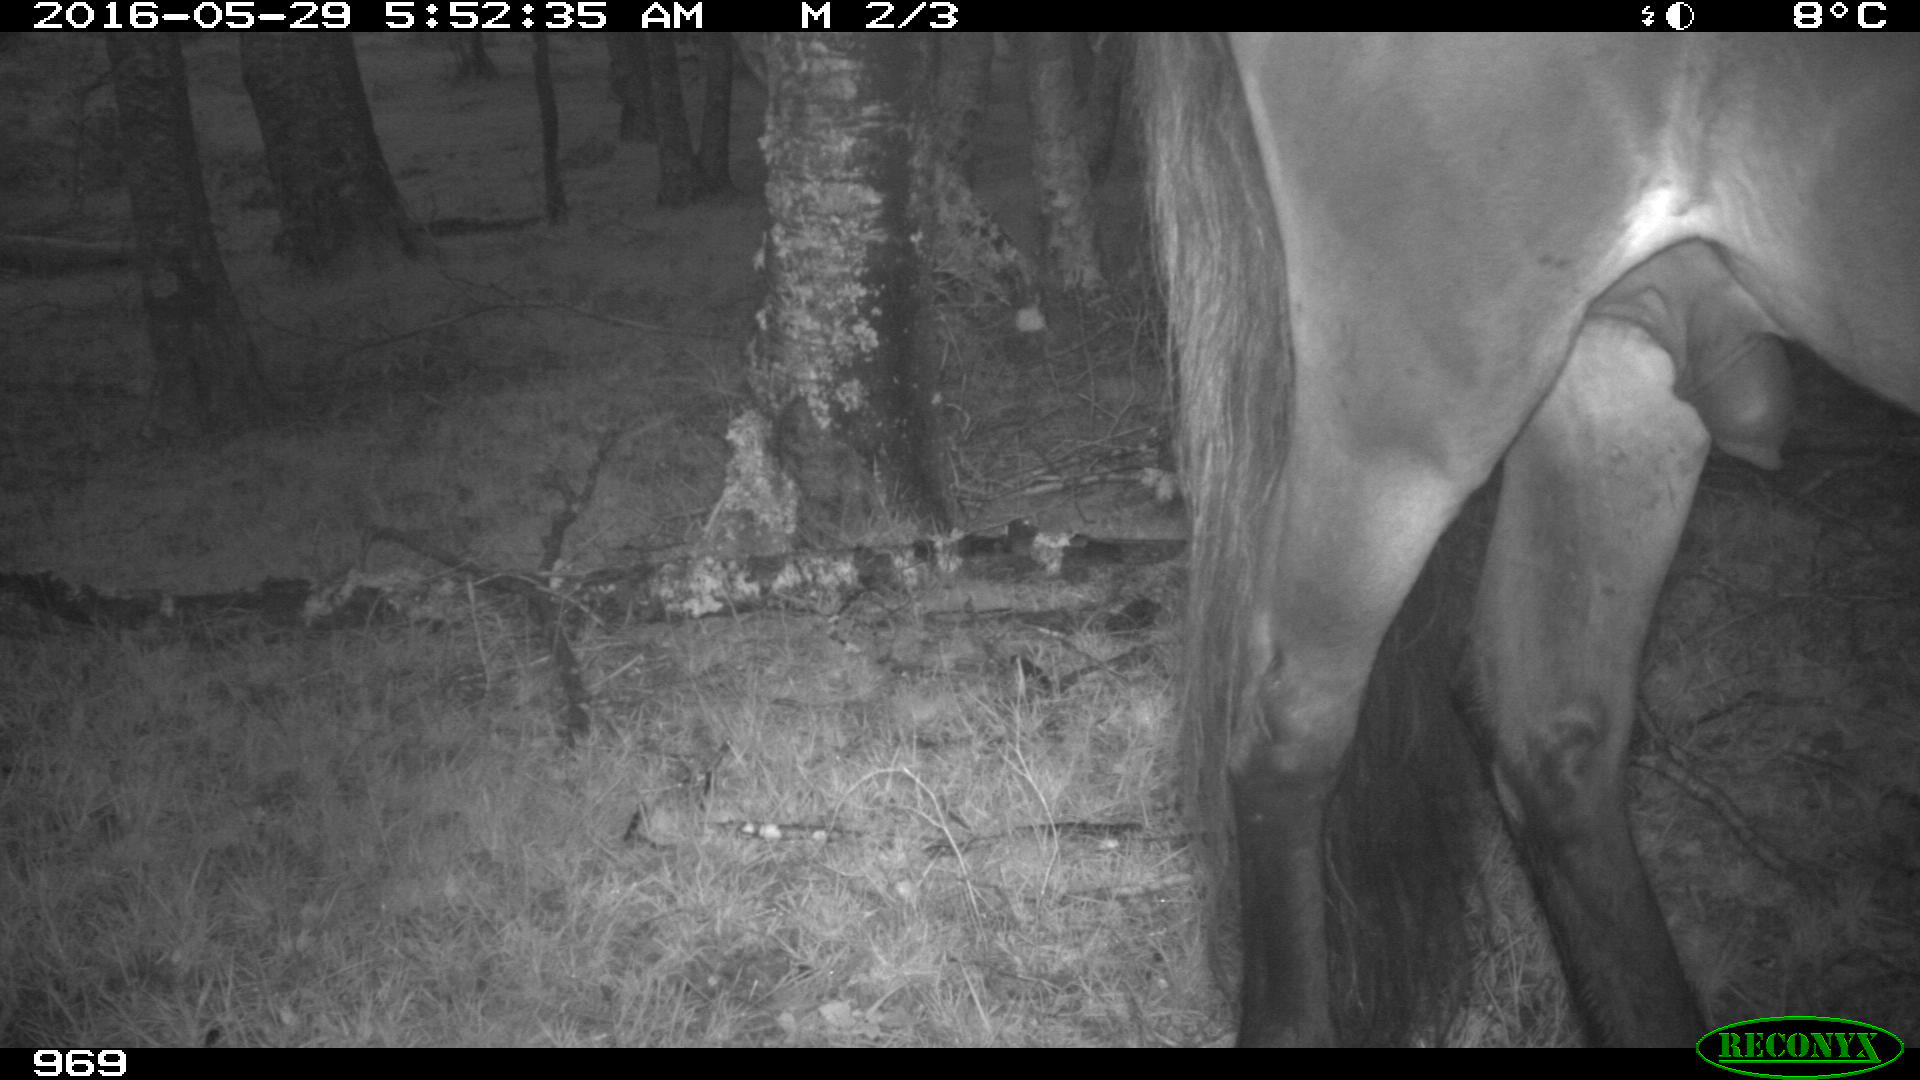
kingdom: Animalia
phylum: Chordata
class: Mammalia
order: Perissodactyla
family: Equidae
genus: Equus
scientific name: Equus caballus
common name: Horse
